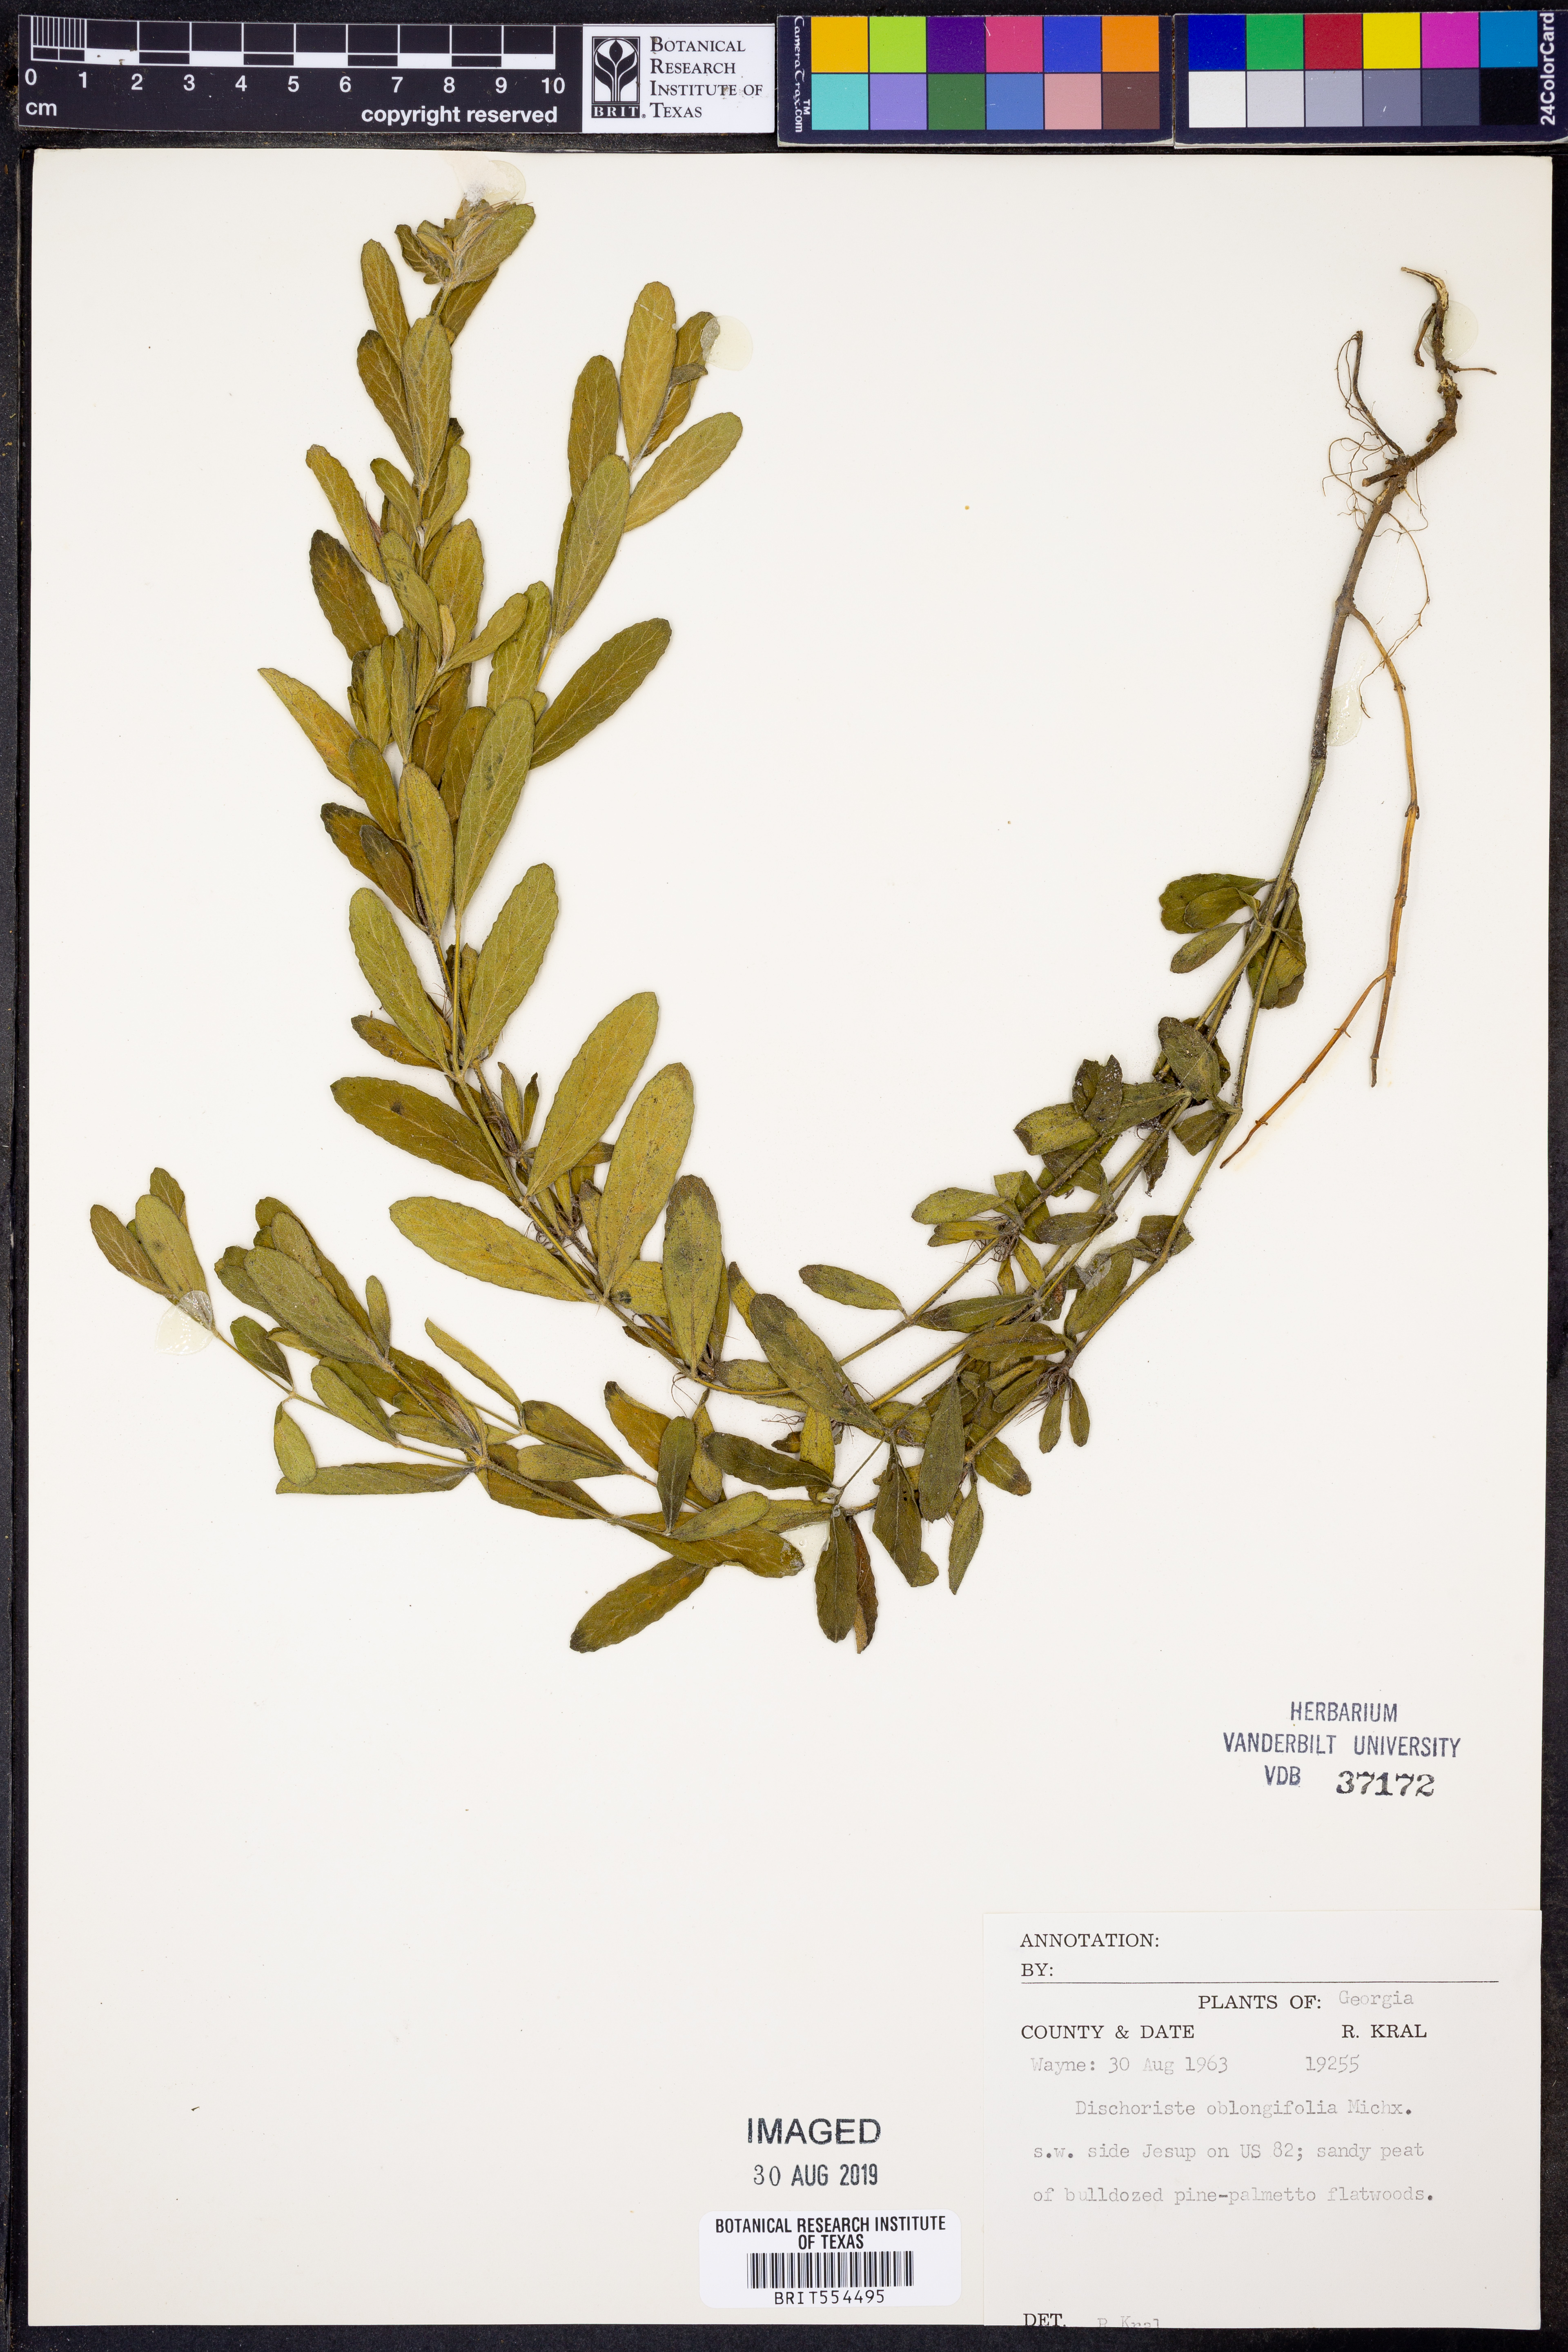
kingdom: Plantae
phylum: Tracheophyta
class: Magnoliopsida
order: Lamiales
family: Acanthaceae
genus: Dyschoriste
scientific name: Dyschoriste oblongifolia
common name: Blue twinflower
